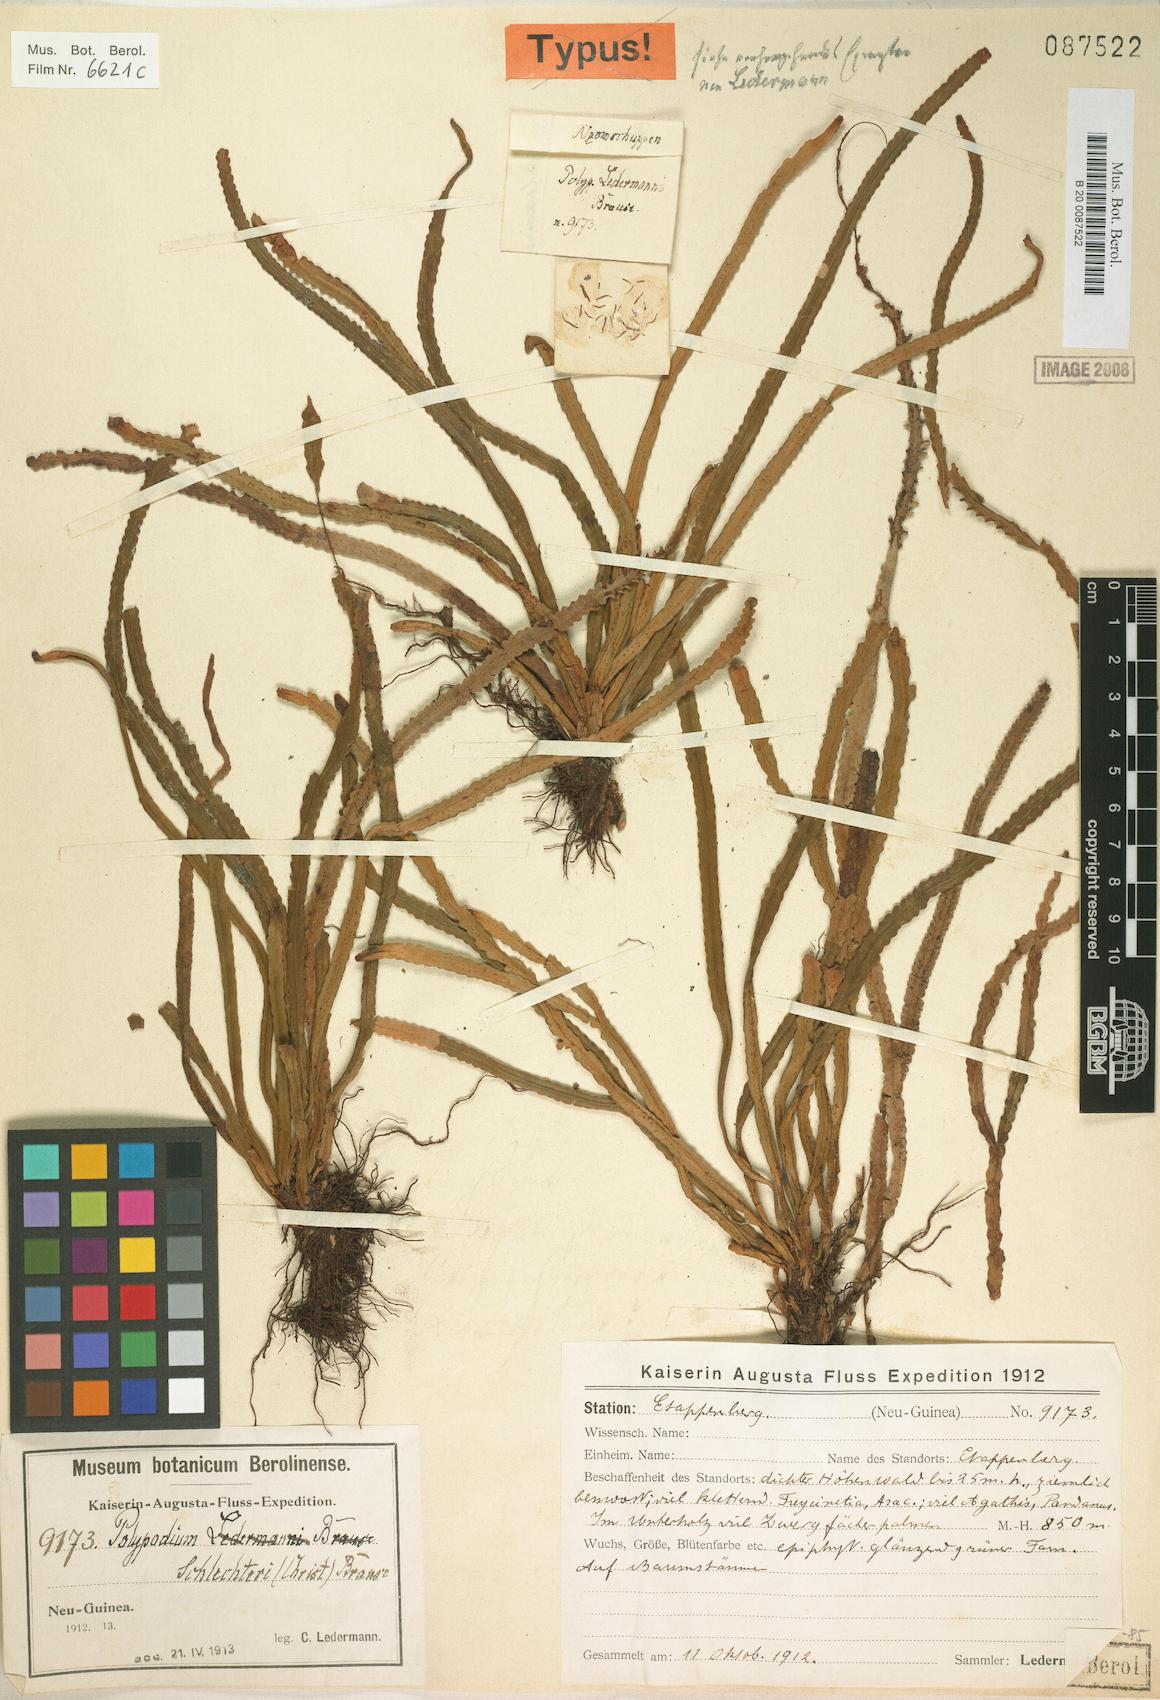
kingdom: Plantae
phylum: Tracheophyta
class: Polypodiopsida
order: Polypodiales
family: Polypodiaceae
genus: Acrosorus
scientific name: Acrosorus schlechteri
